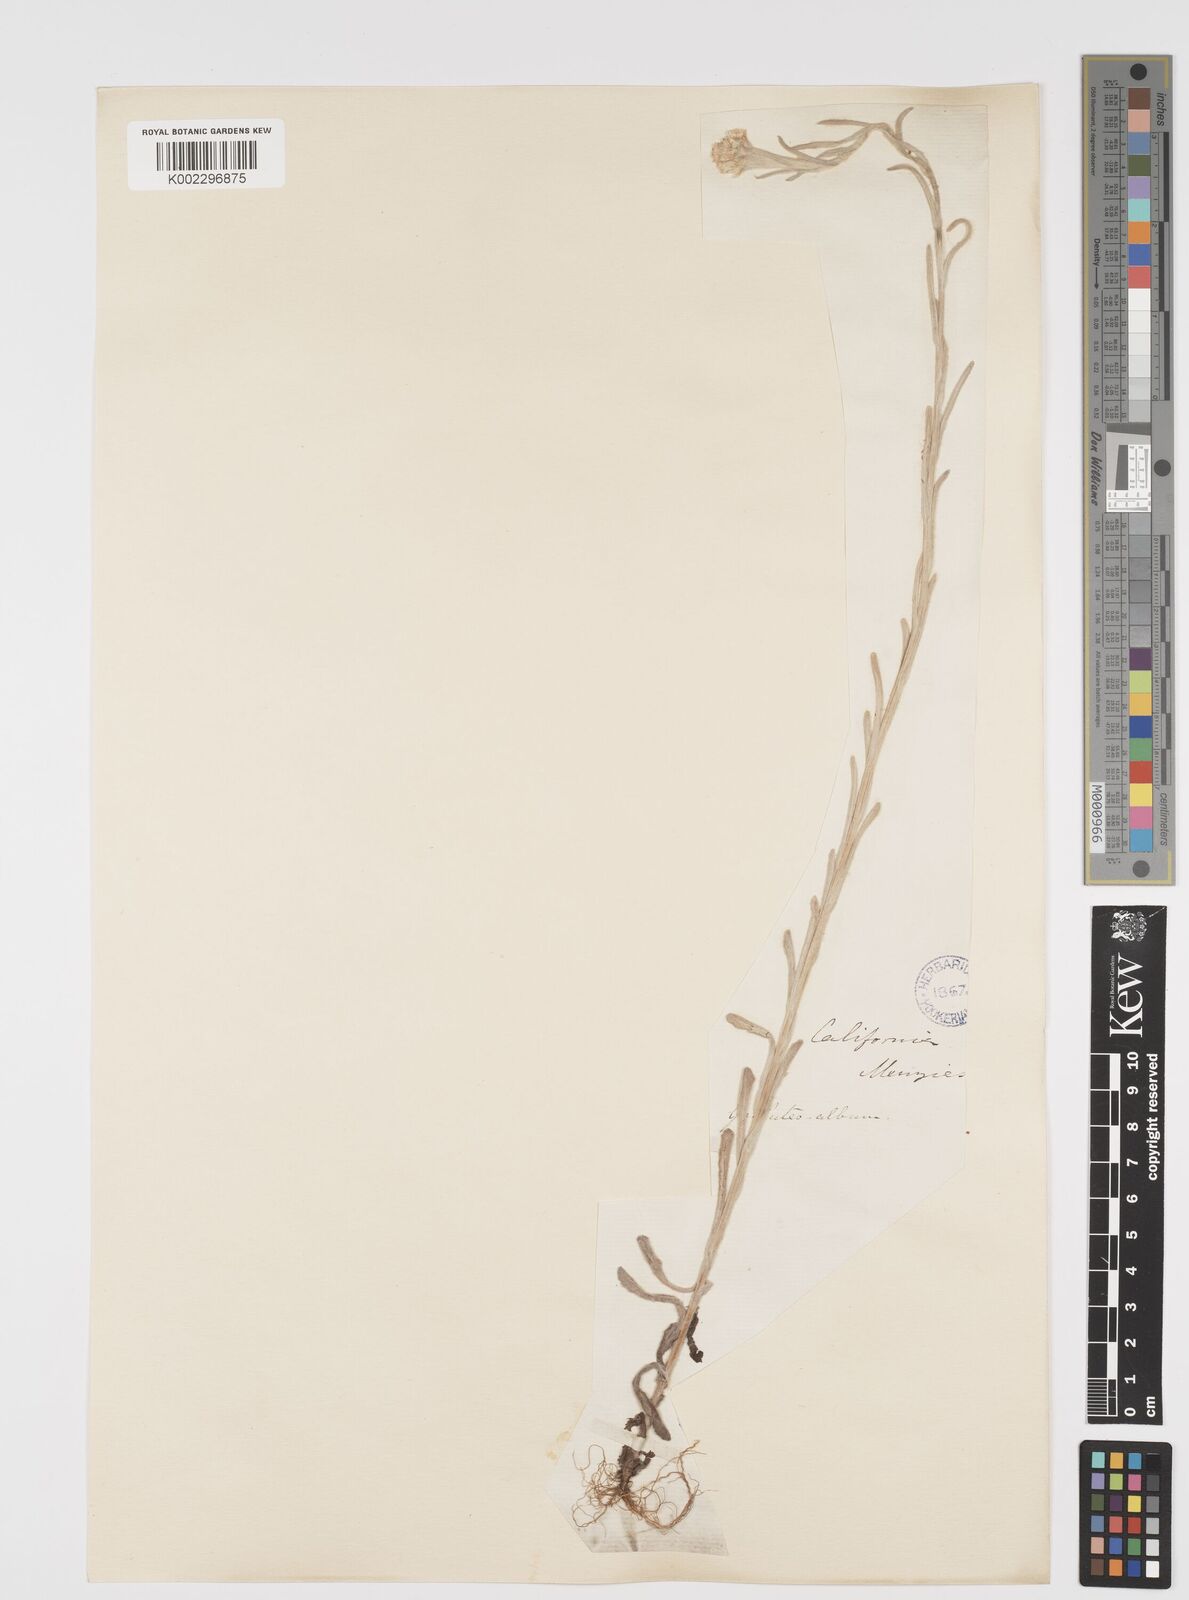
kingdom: Plantae
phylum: Tracheophyta
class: Magnoliopsida
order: Asterales
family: Asteraceae
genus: Helichrysum
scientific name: Helichrysum luteoalbum
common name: Daisy
